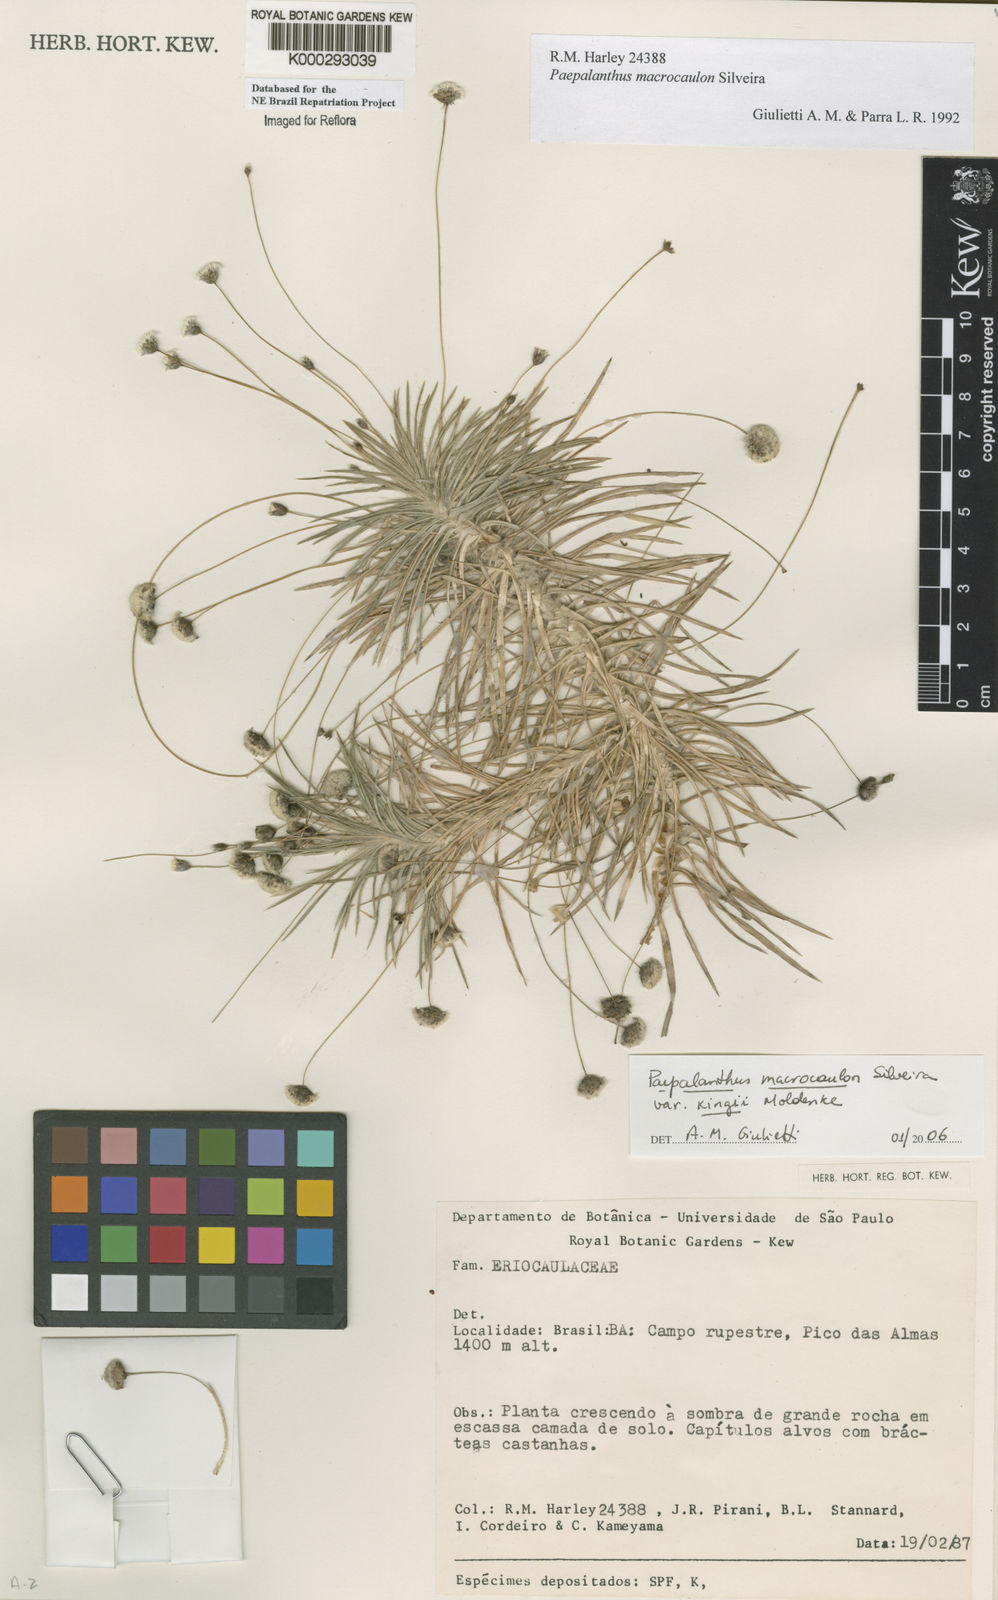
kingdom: Plantae
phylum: Tracheophyta
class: Liliopsida
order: Poales
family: Eriocaulaceae
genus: Paepalanthus
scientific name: Paepalanthus macrocaulon
